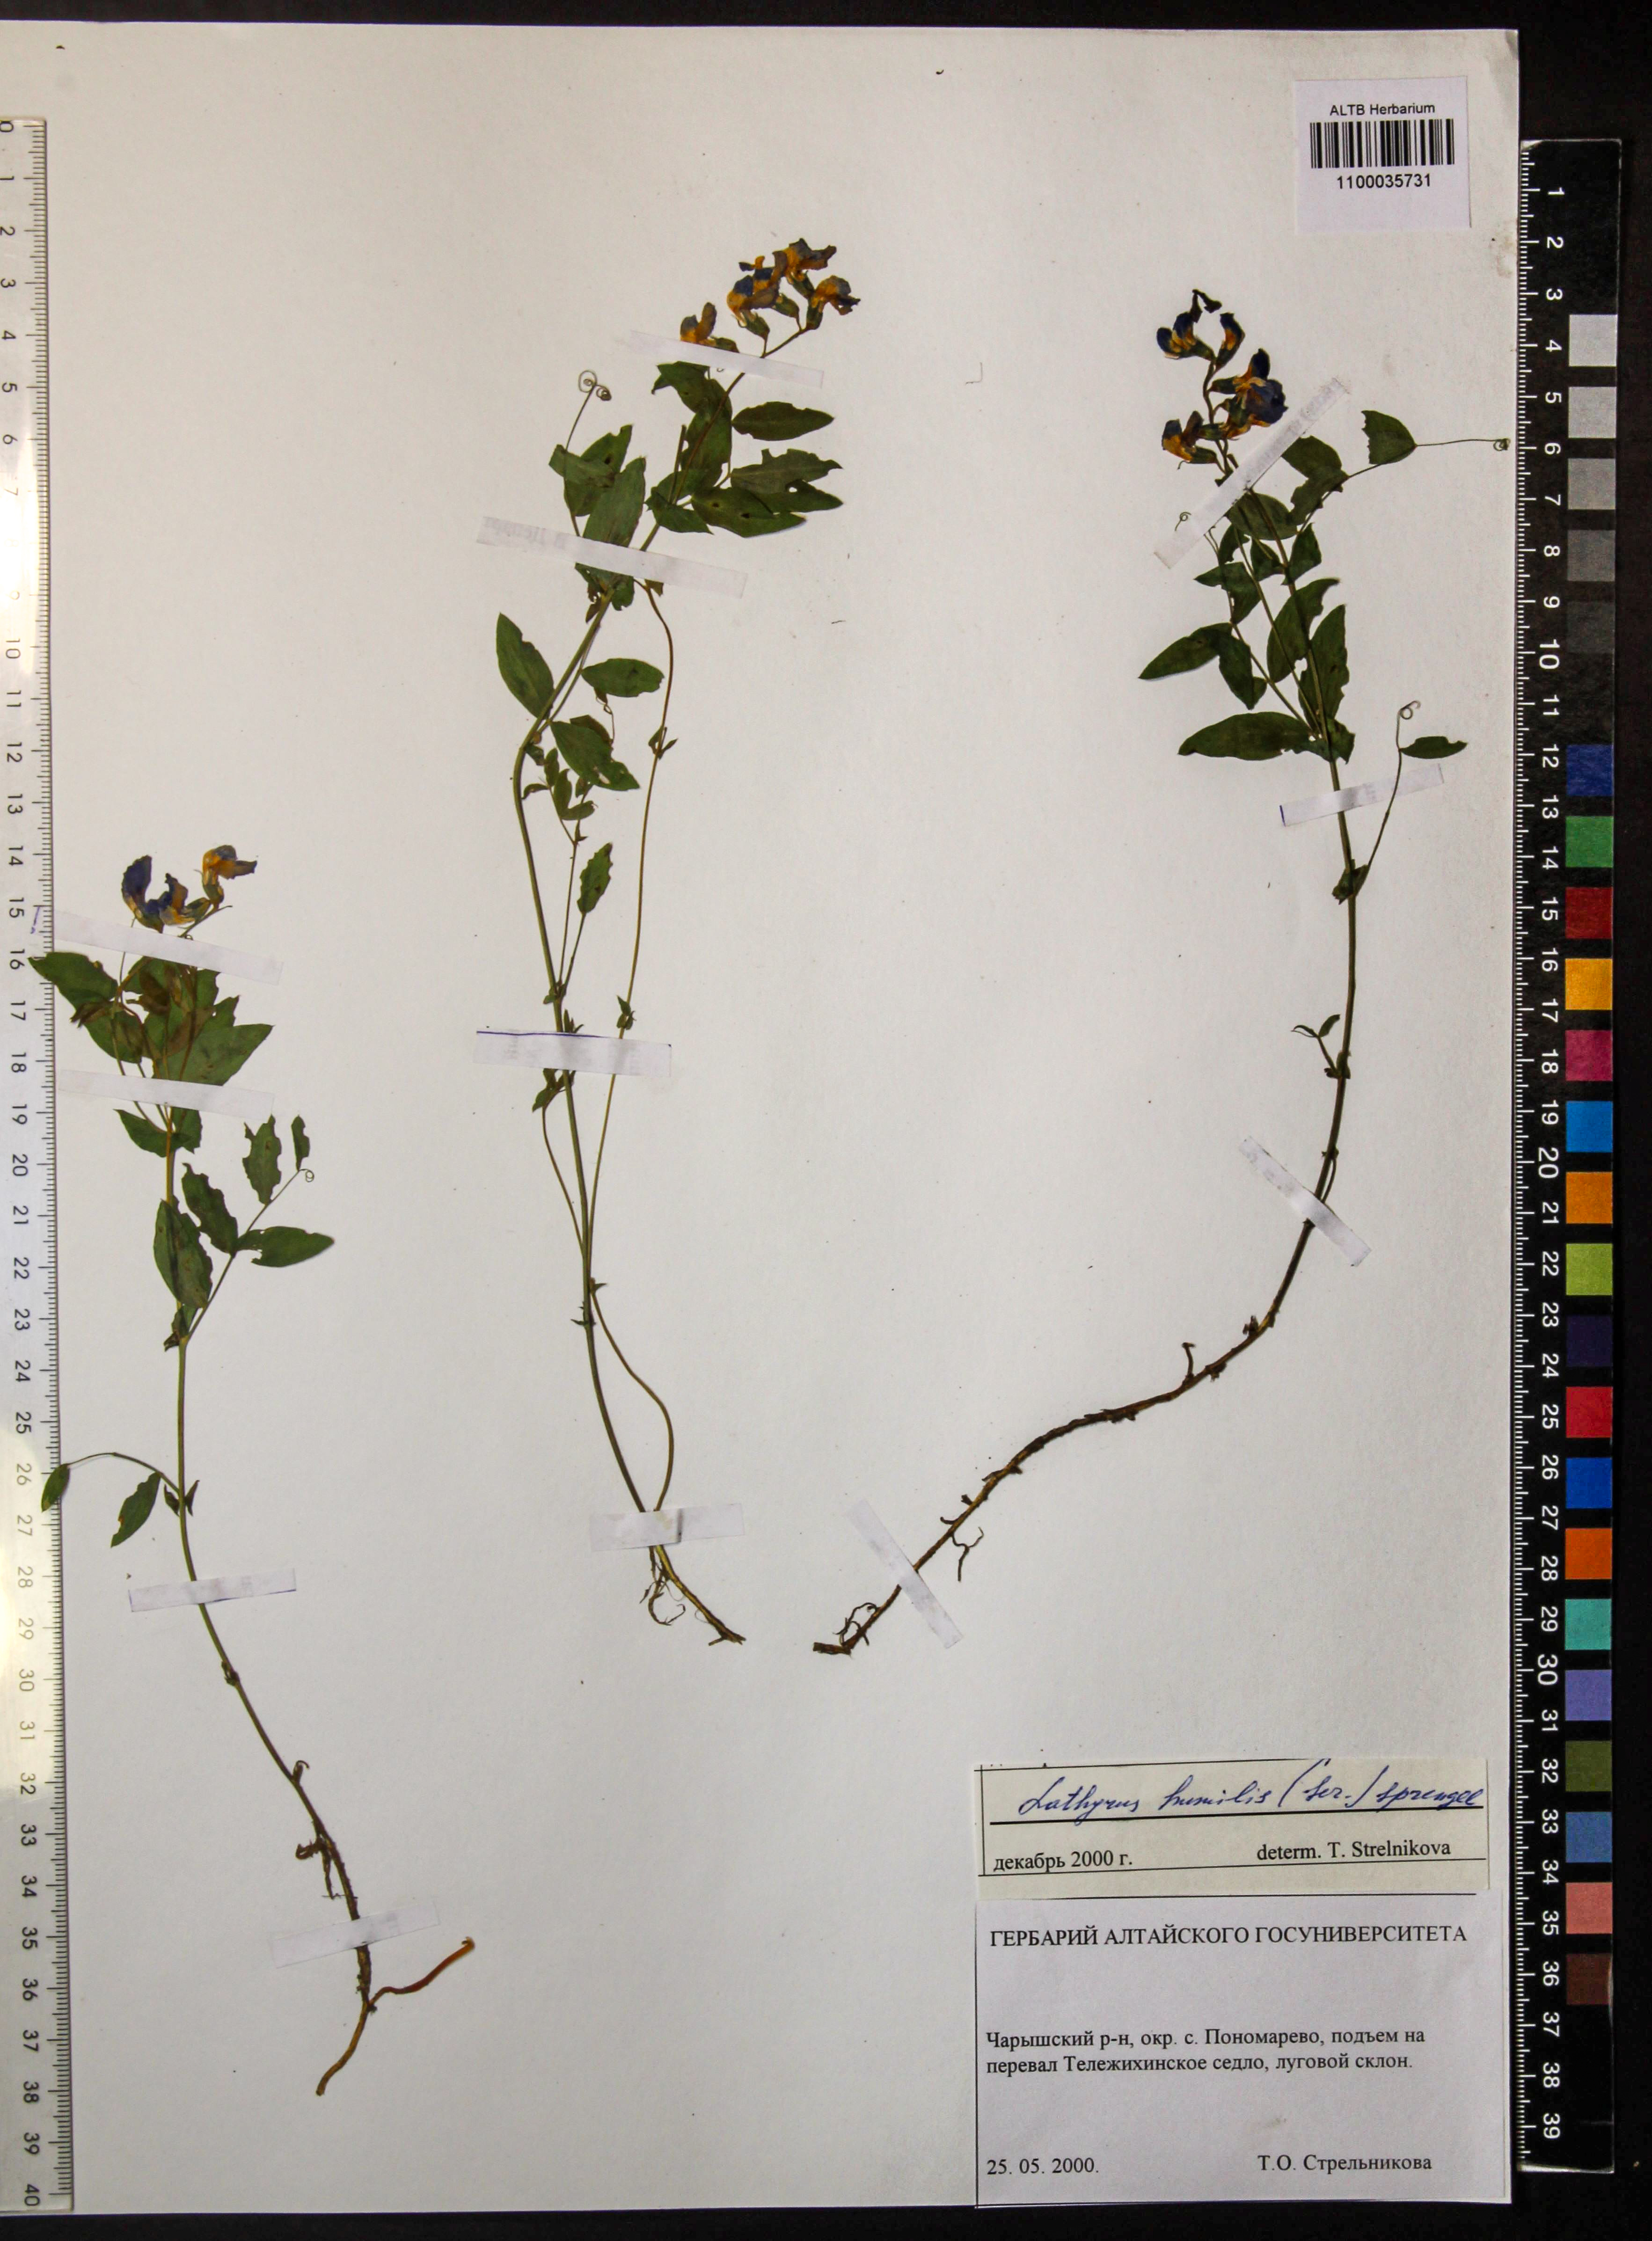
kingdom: Plantae
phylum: Tracheophyta
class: Magnoliopsida
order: Fabales
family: Fabaceae
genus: Lathyrus
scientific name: Lathyrus humilis
